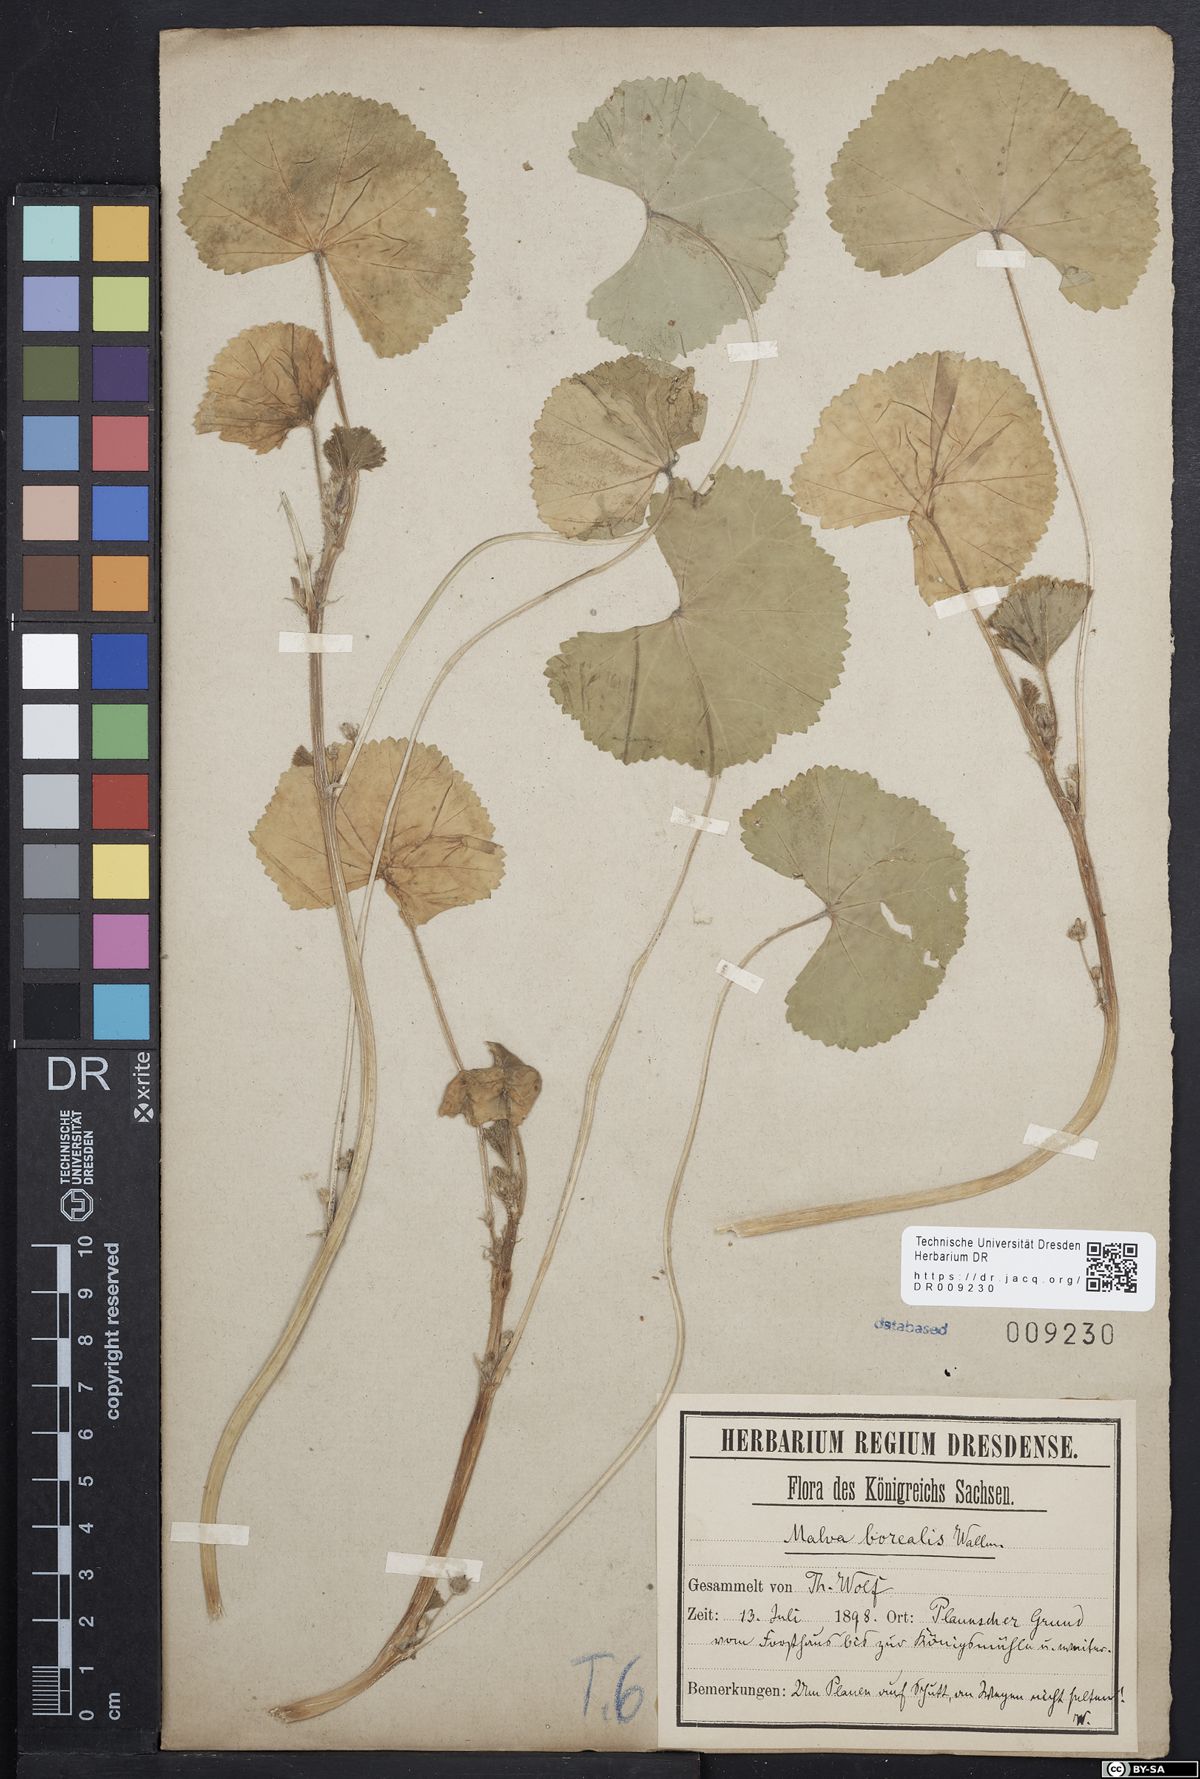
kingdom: Plantae
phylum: Tracheophyta
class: Magnoliopsida
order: Malvales
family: Malvaceae
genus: Malva
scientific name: Malva pusilla
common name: Small mallow
